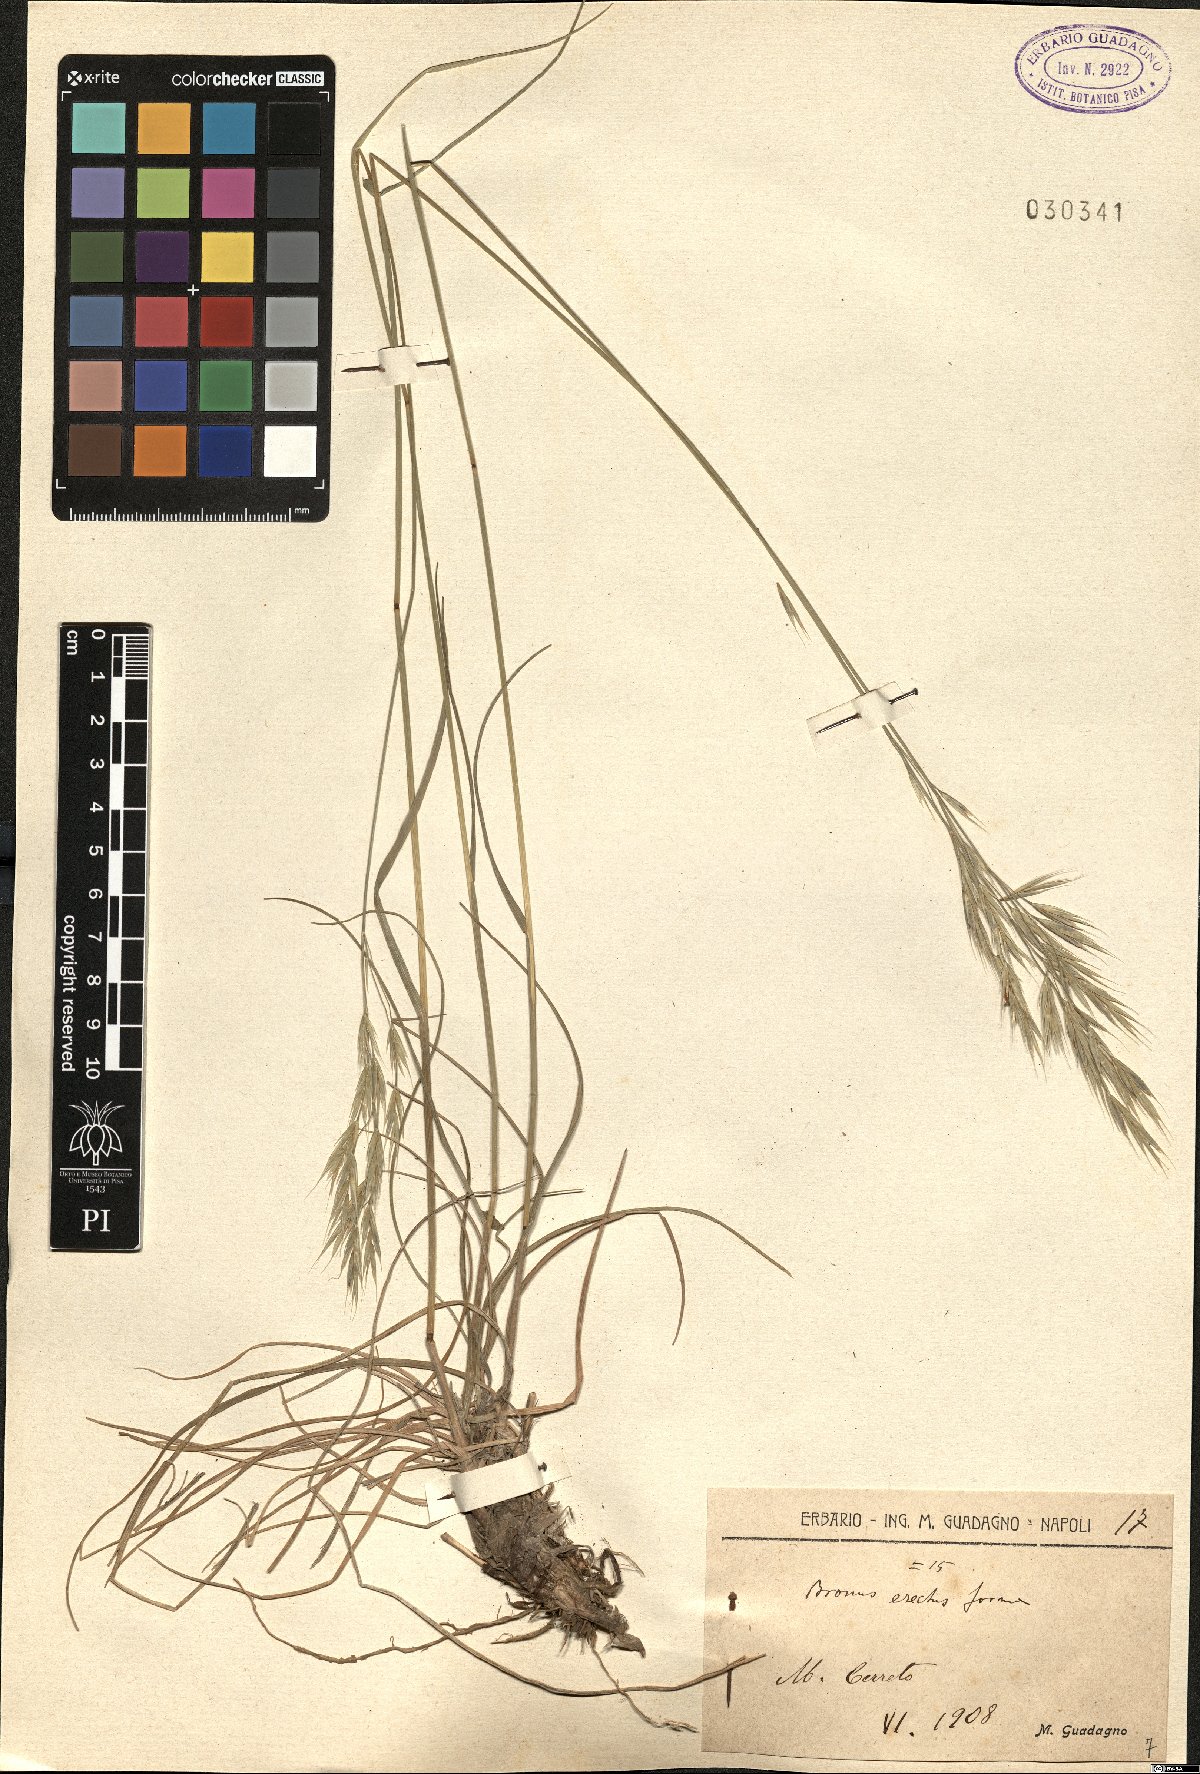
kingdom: Plantae
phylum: Tracheophyta
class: Liliopsida
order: Poales
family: Poaceae
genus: Bromus
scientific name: Bromus erectus
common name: Erect brome
